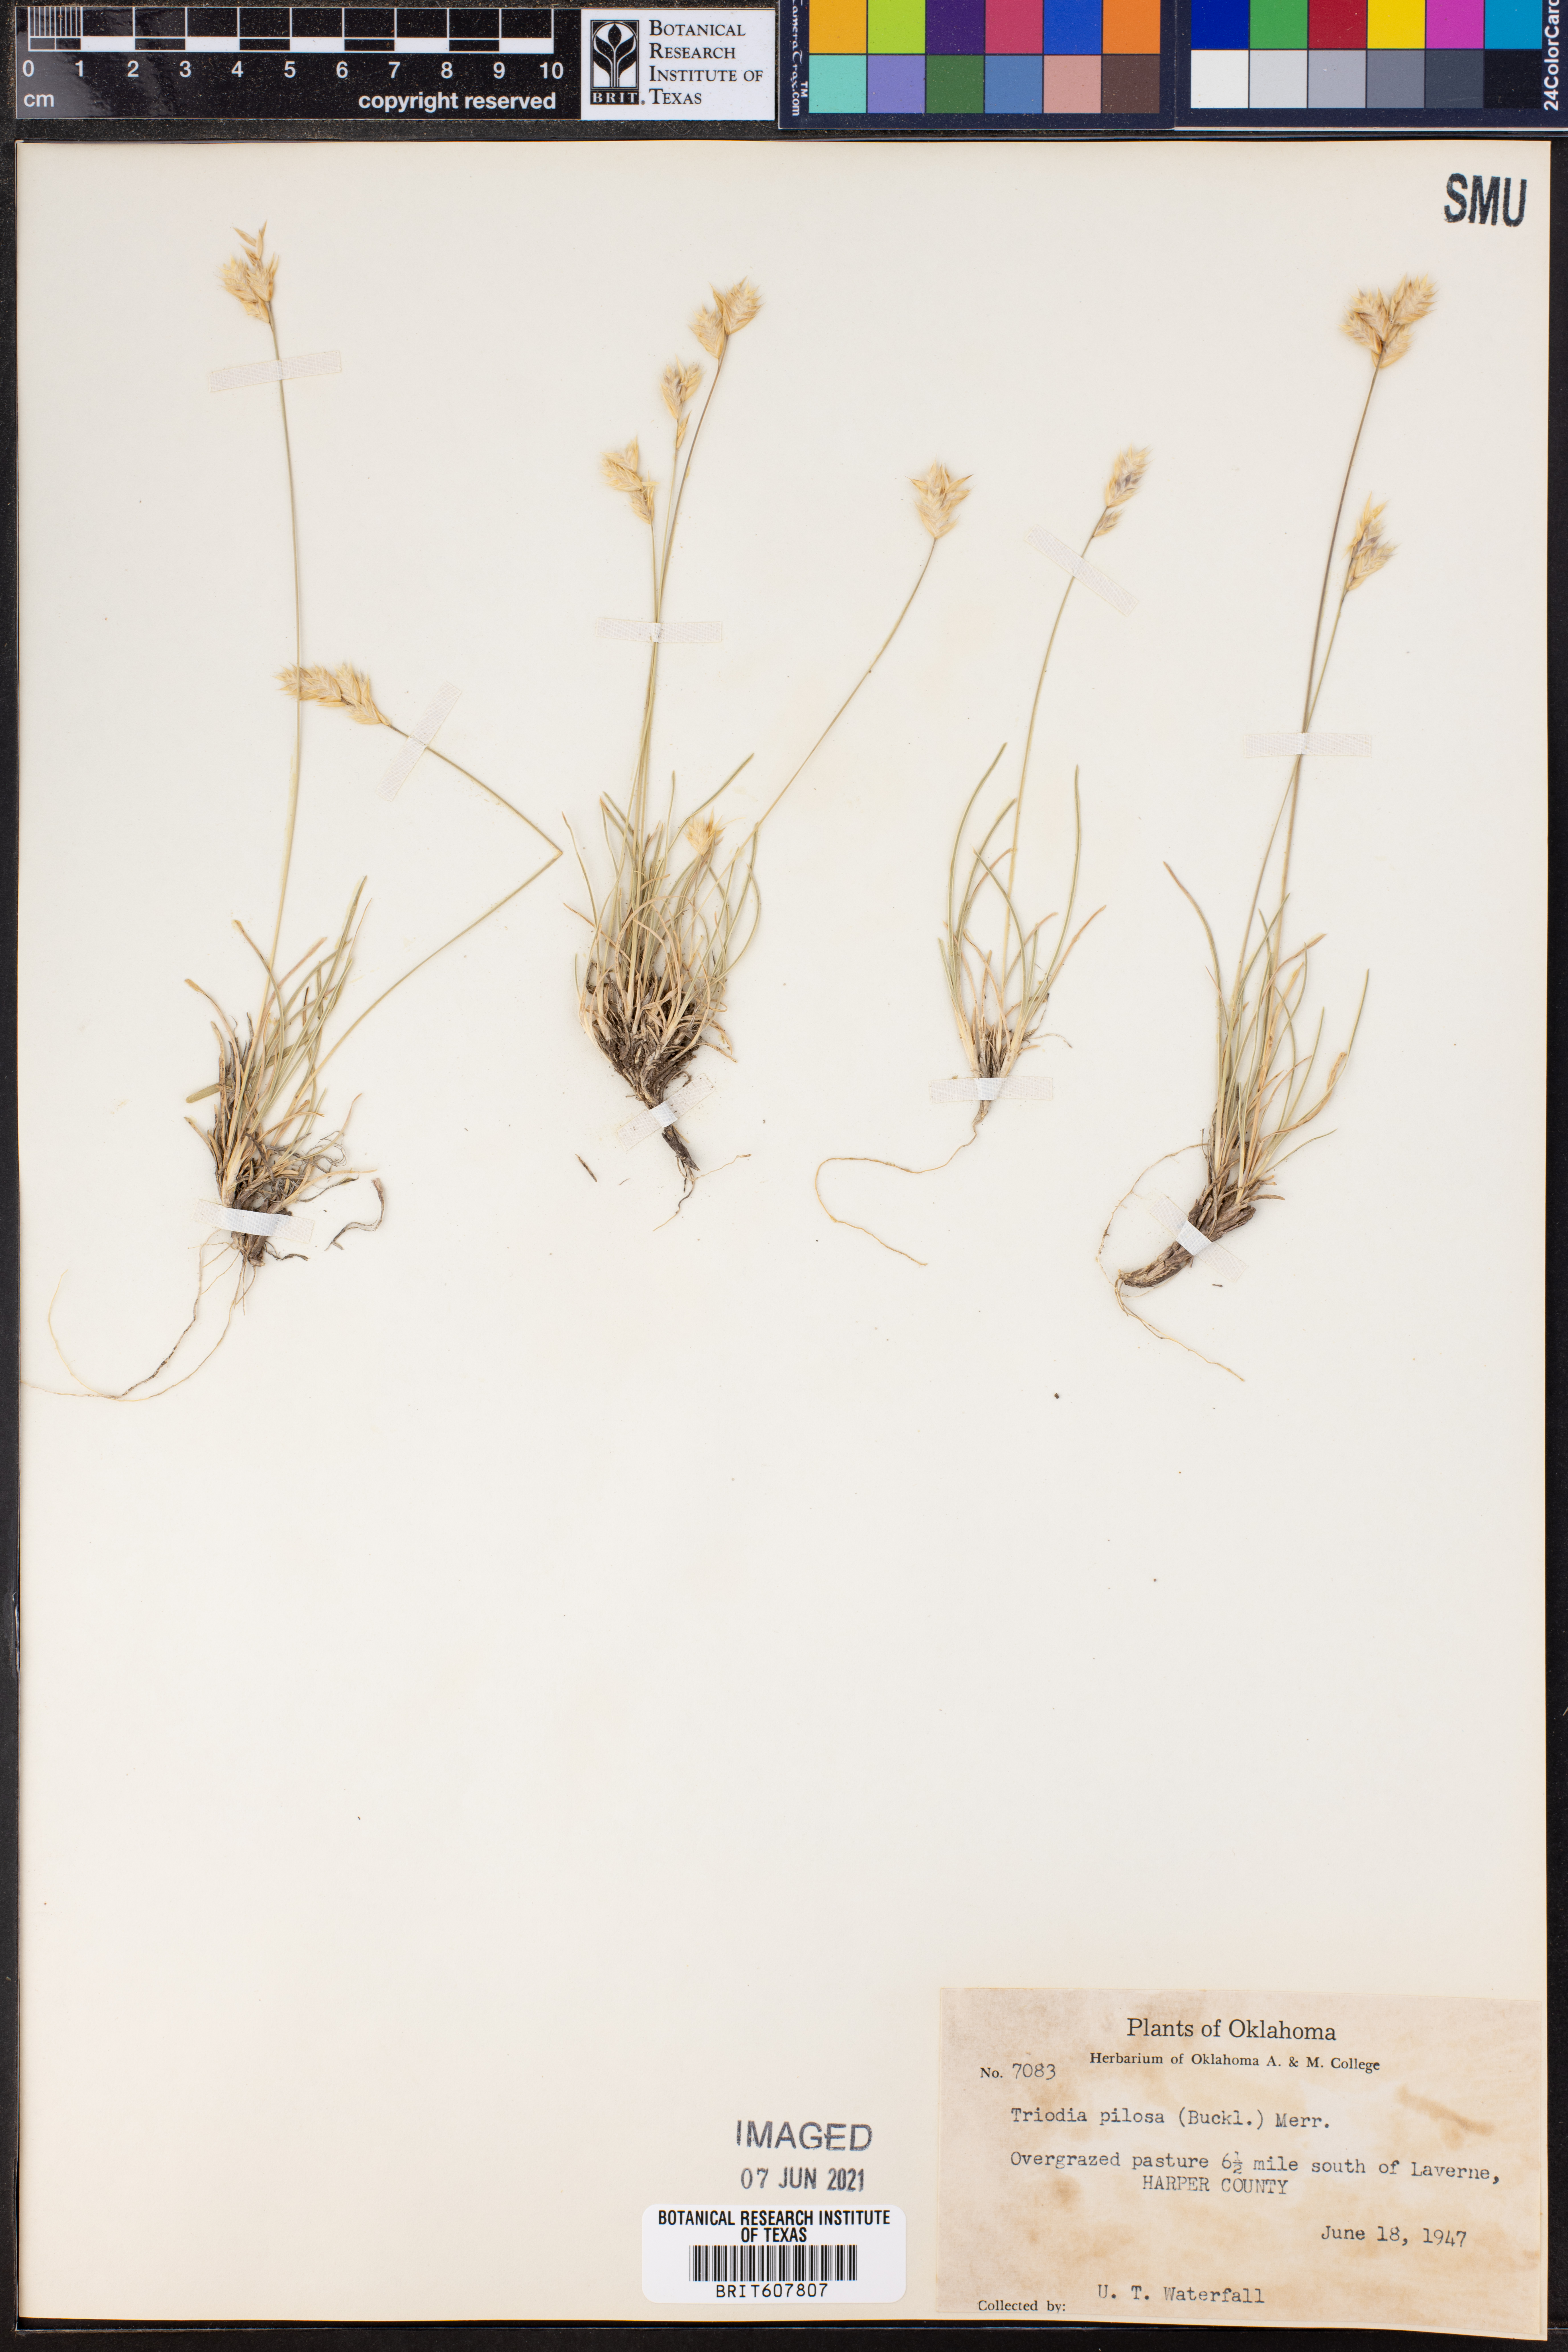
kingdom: Plantae
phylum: Tracheophyta
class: Liliopsida
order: Poales
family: Poaceae
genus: Triodia
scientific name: Triodia pilosa
